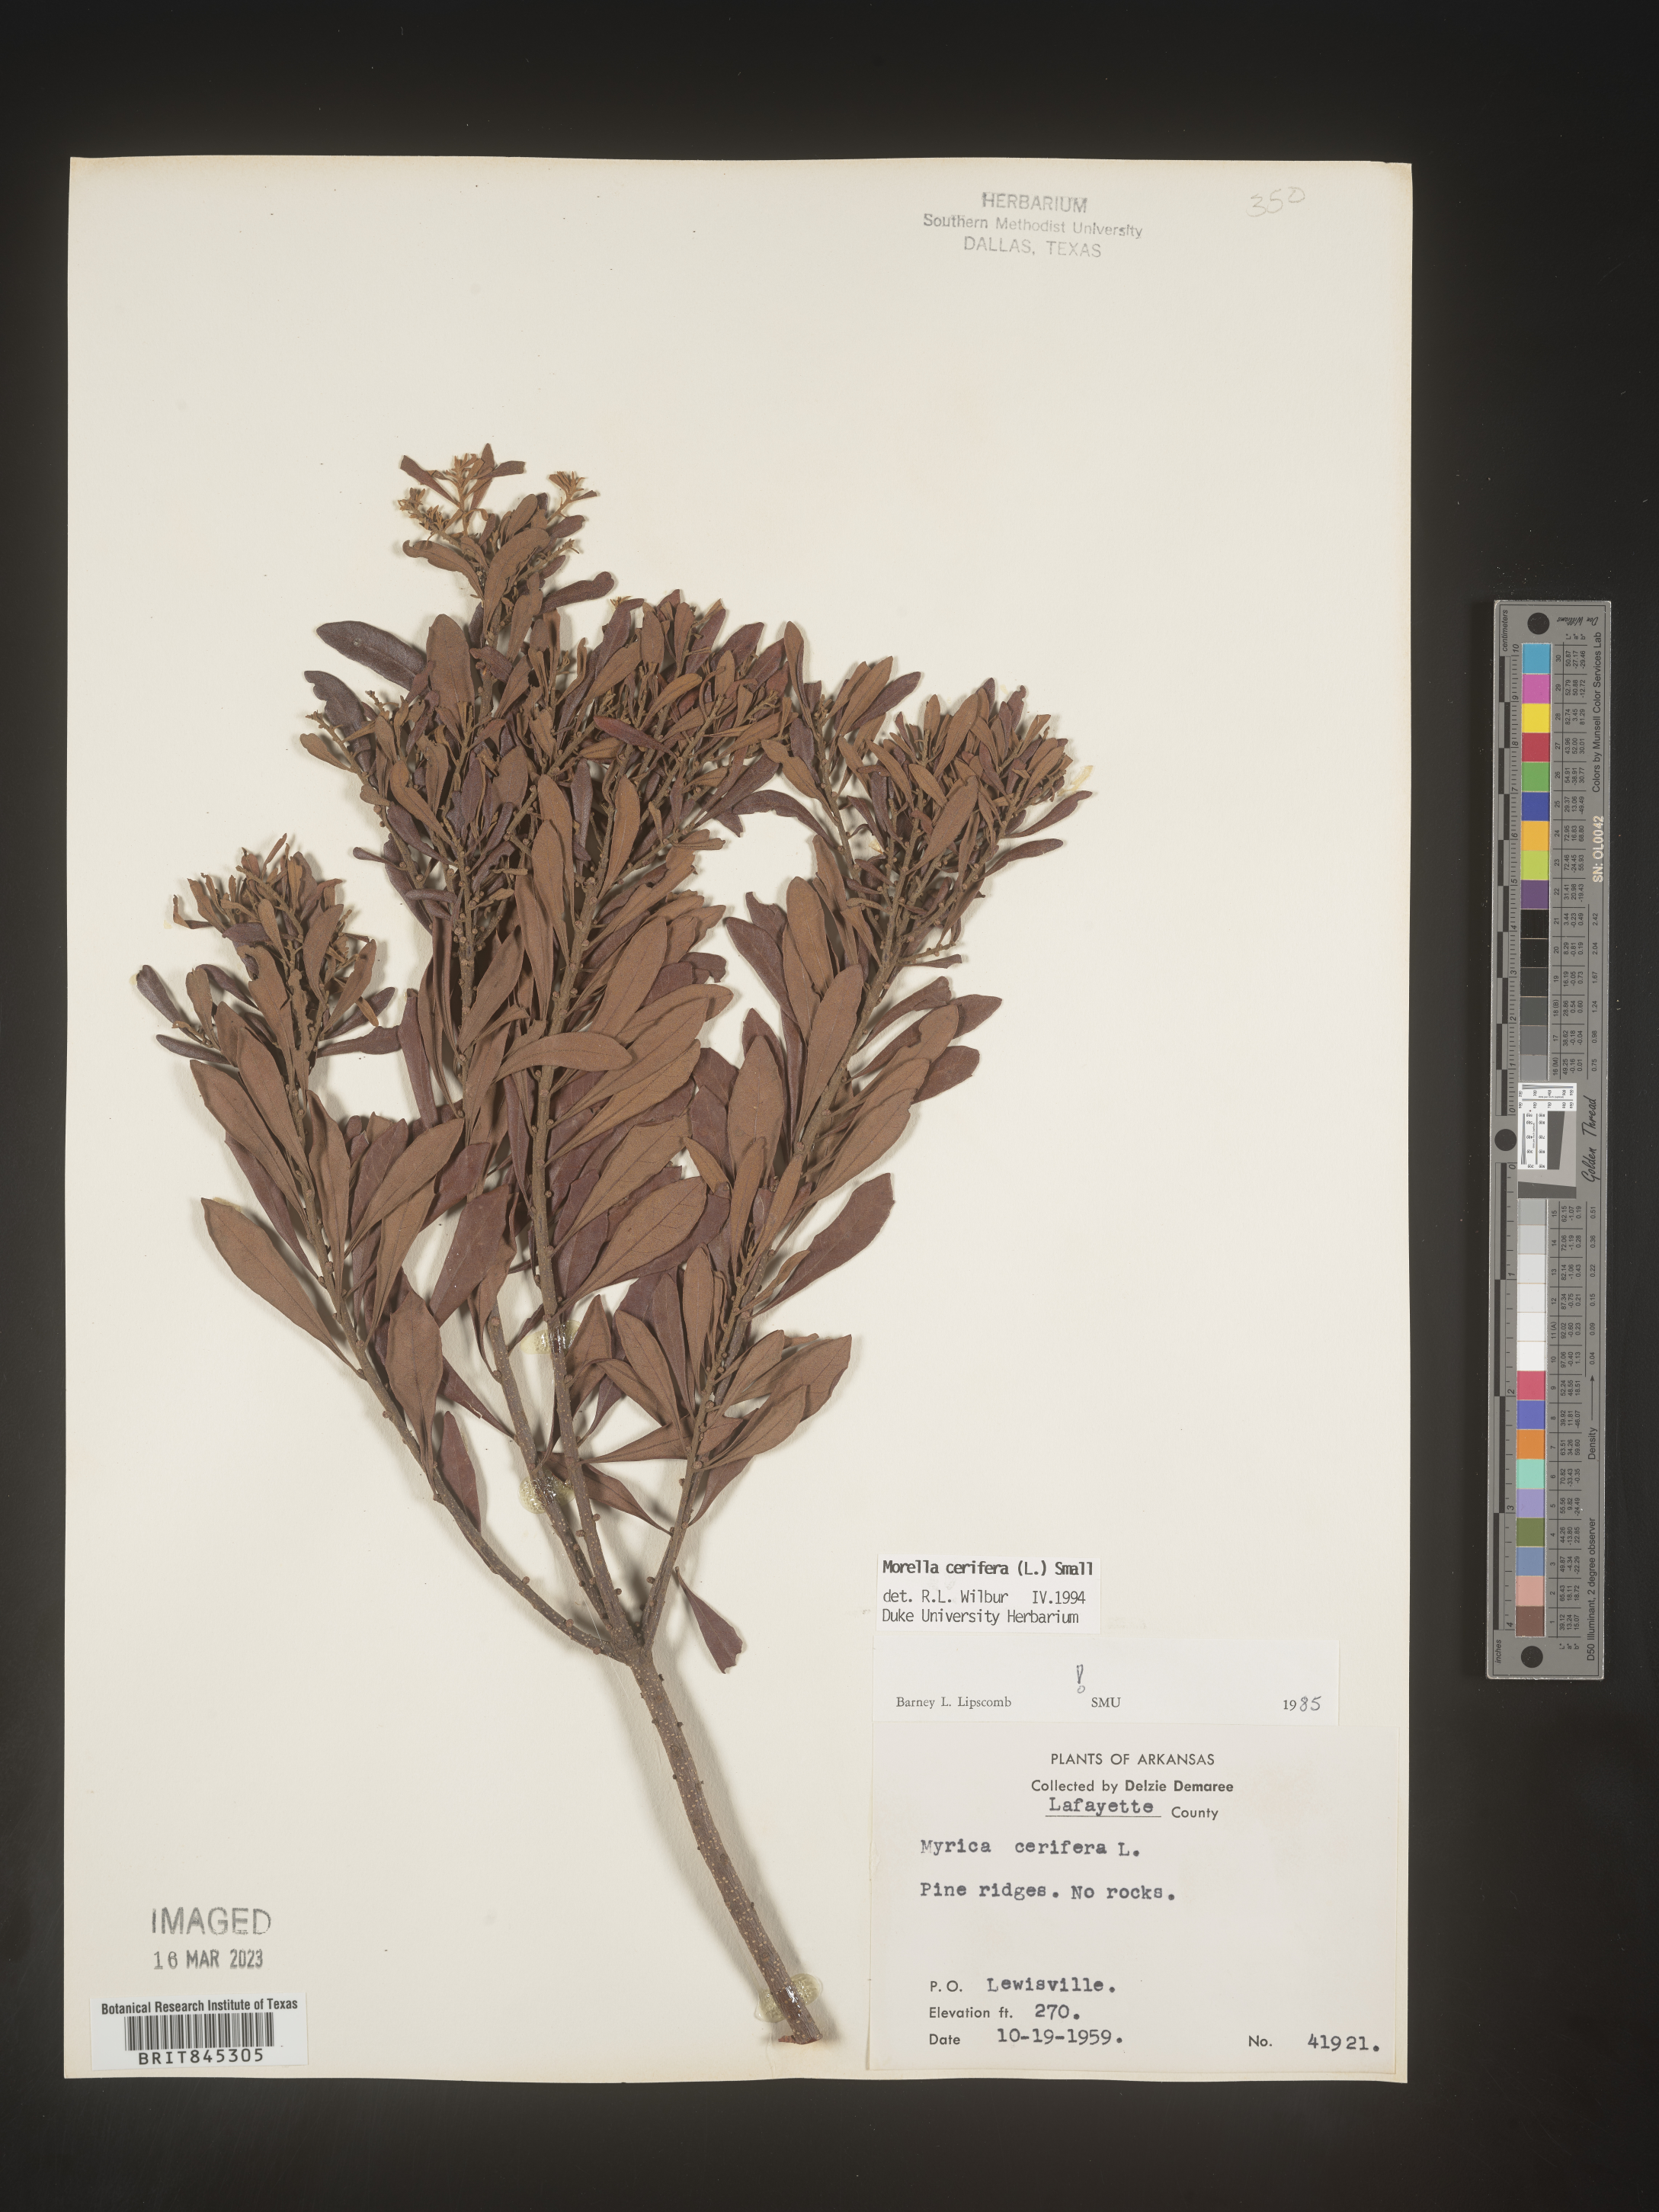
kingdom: Plantae
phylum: Tracheophyta
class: Magnoliopsida
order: Fagales
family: Myricaceae
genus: Morella
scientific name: Morella cerifera
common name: Wax myrtle
